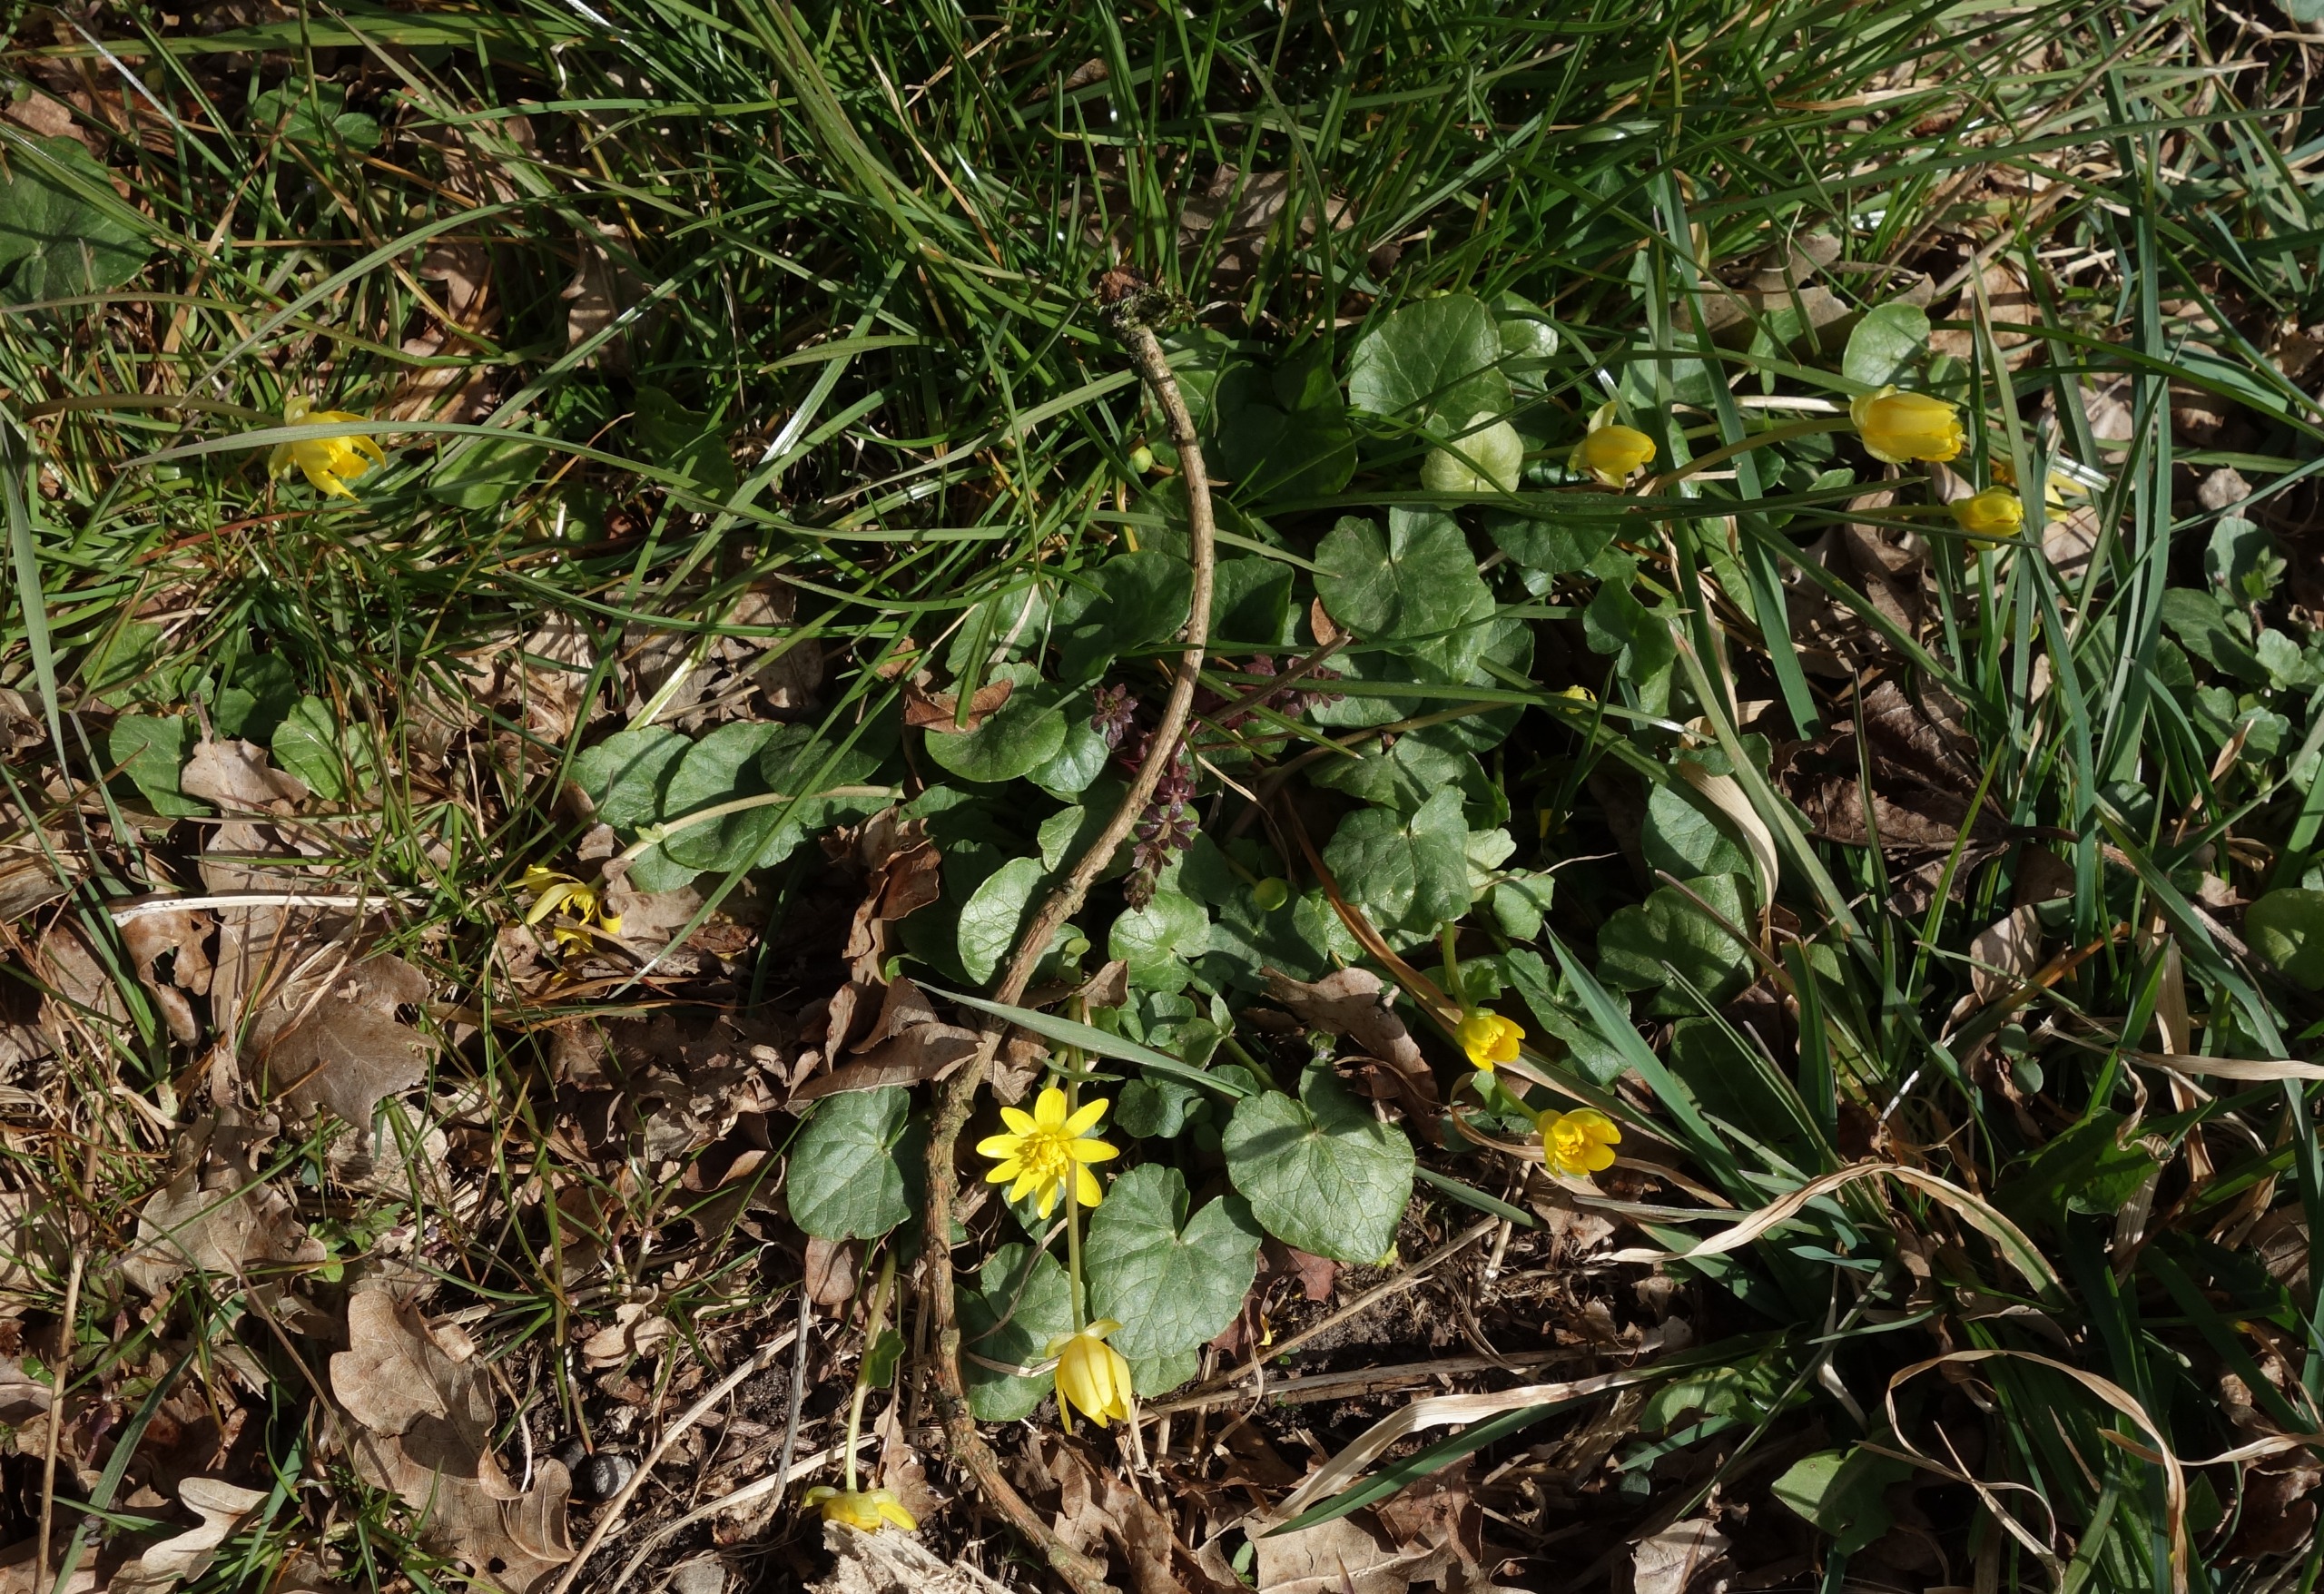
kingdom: Plantae
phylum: Tracheophyta
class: Magnoliopsida
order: Ranunculales
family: Ranunculaceae
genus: Ficaria
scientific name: Ficaria verna
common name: Vorterod
